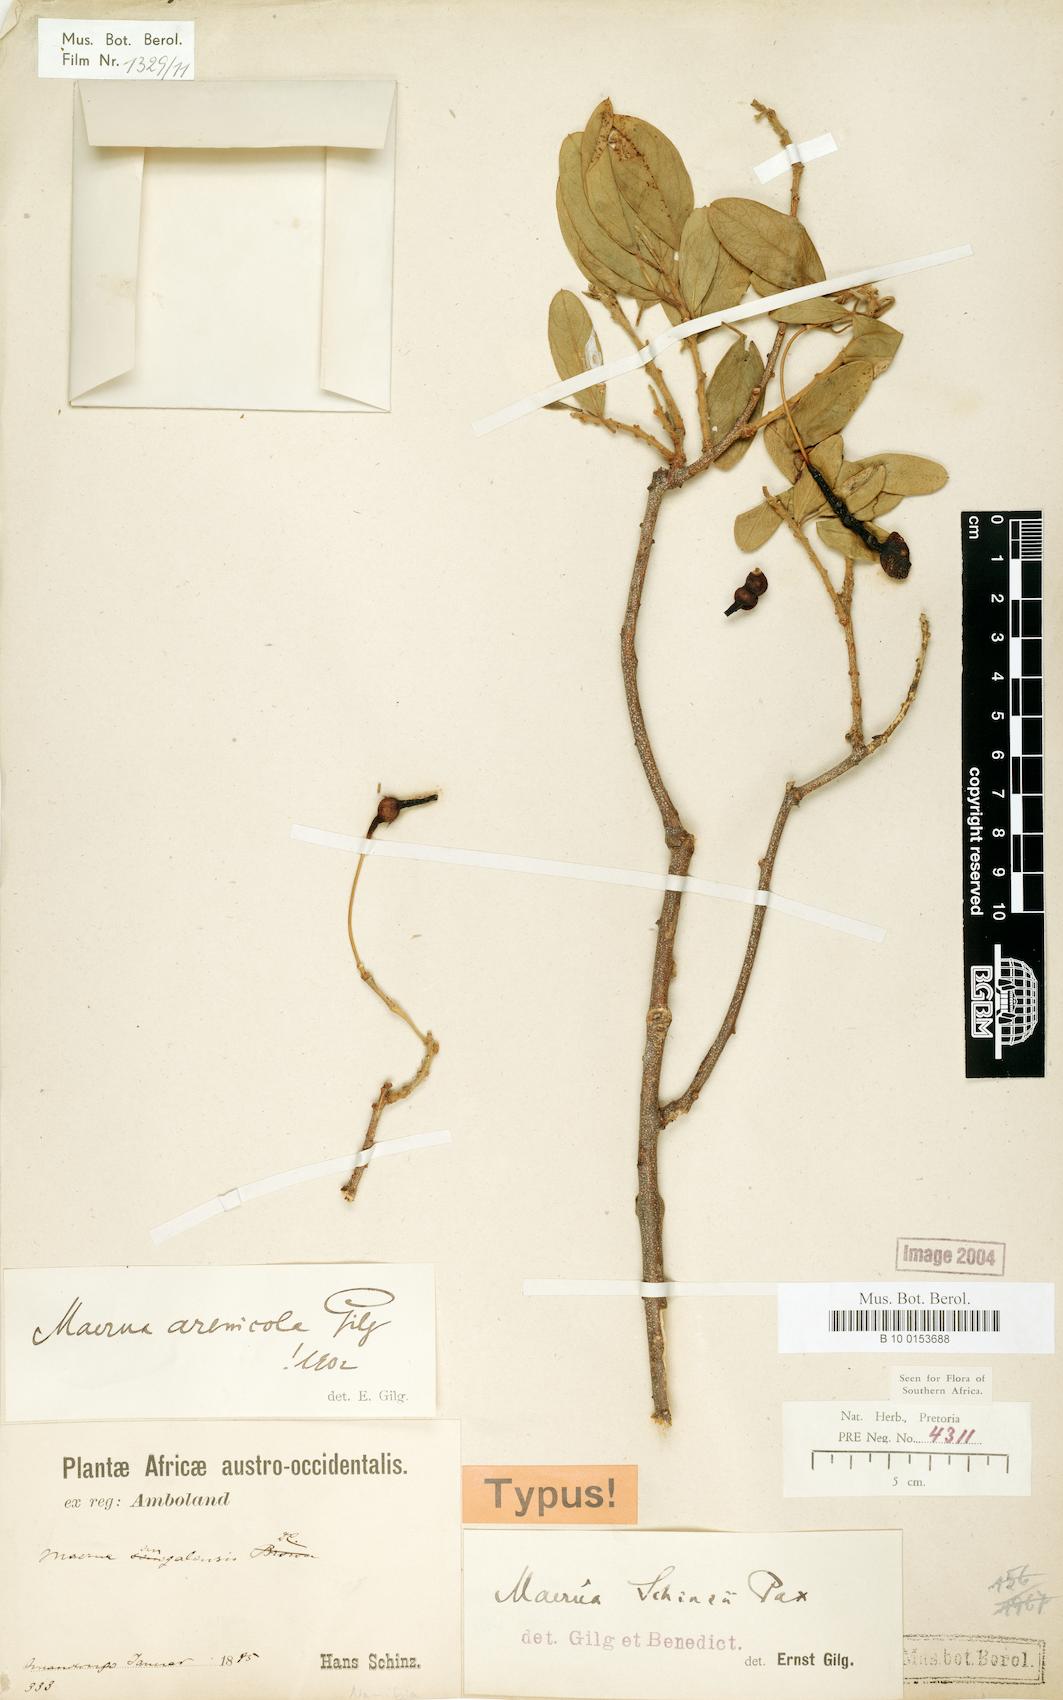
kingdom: Plantae
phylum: Tracheophyta
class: Magnoliopsida
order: Brassicales
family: Capparaceae
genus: Maerua
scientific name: Maerua schinzii
